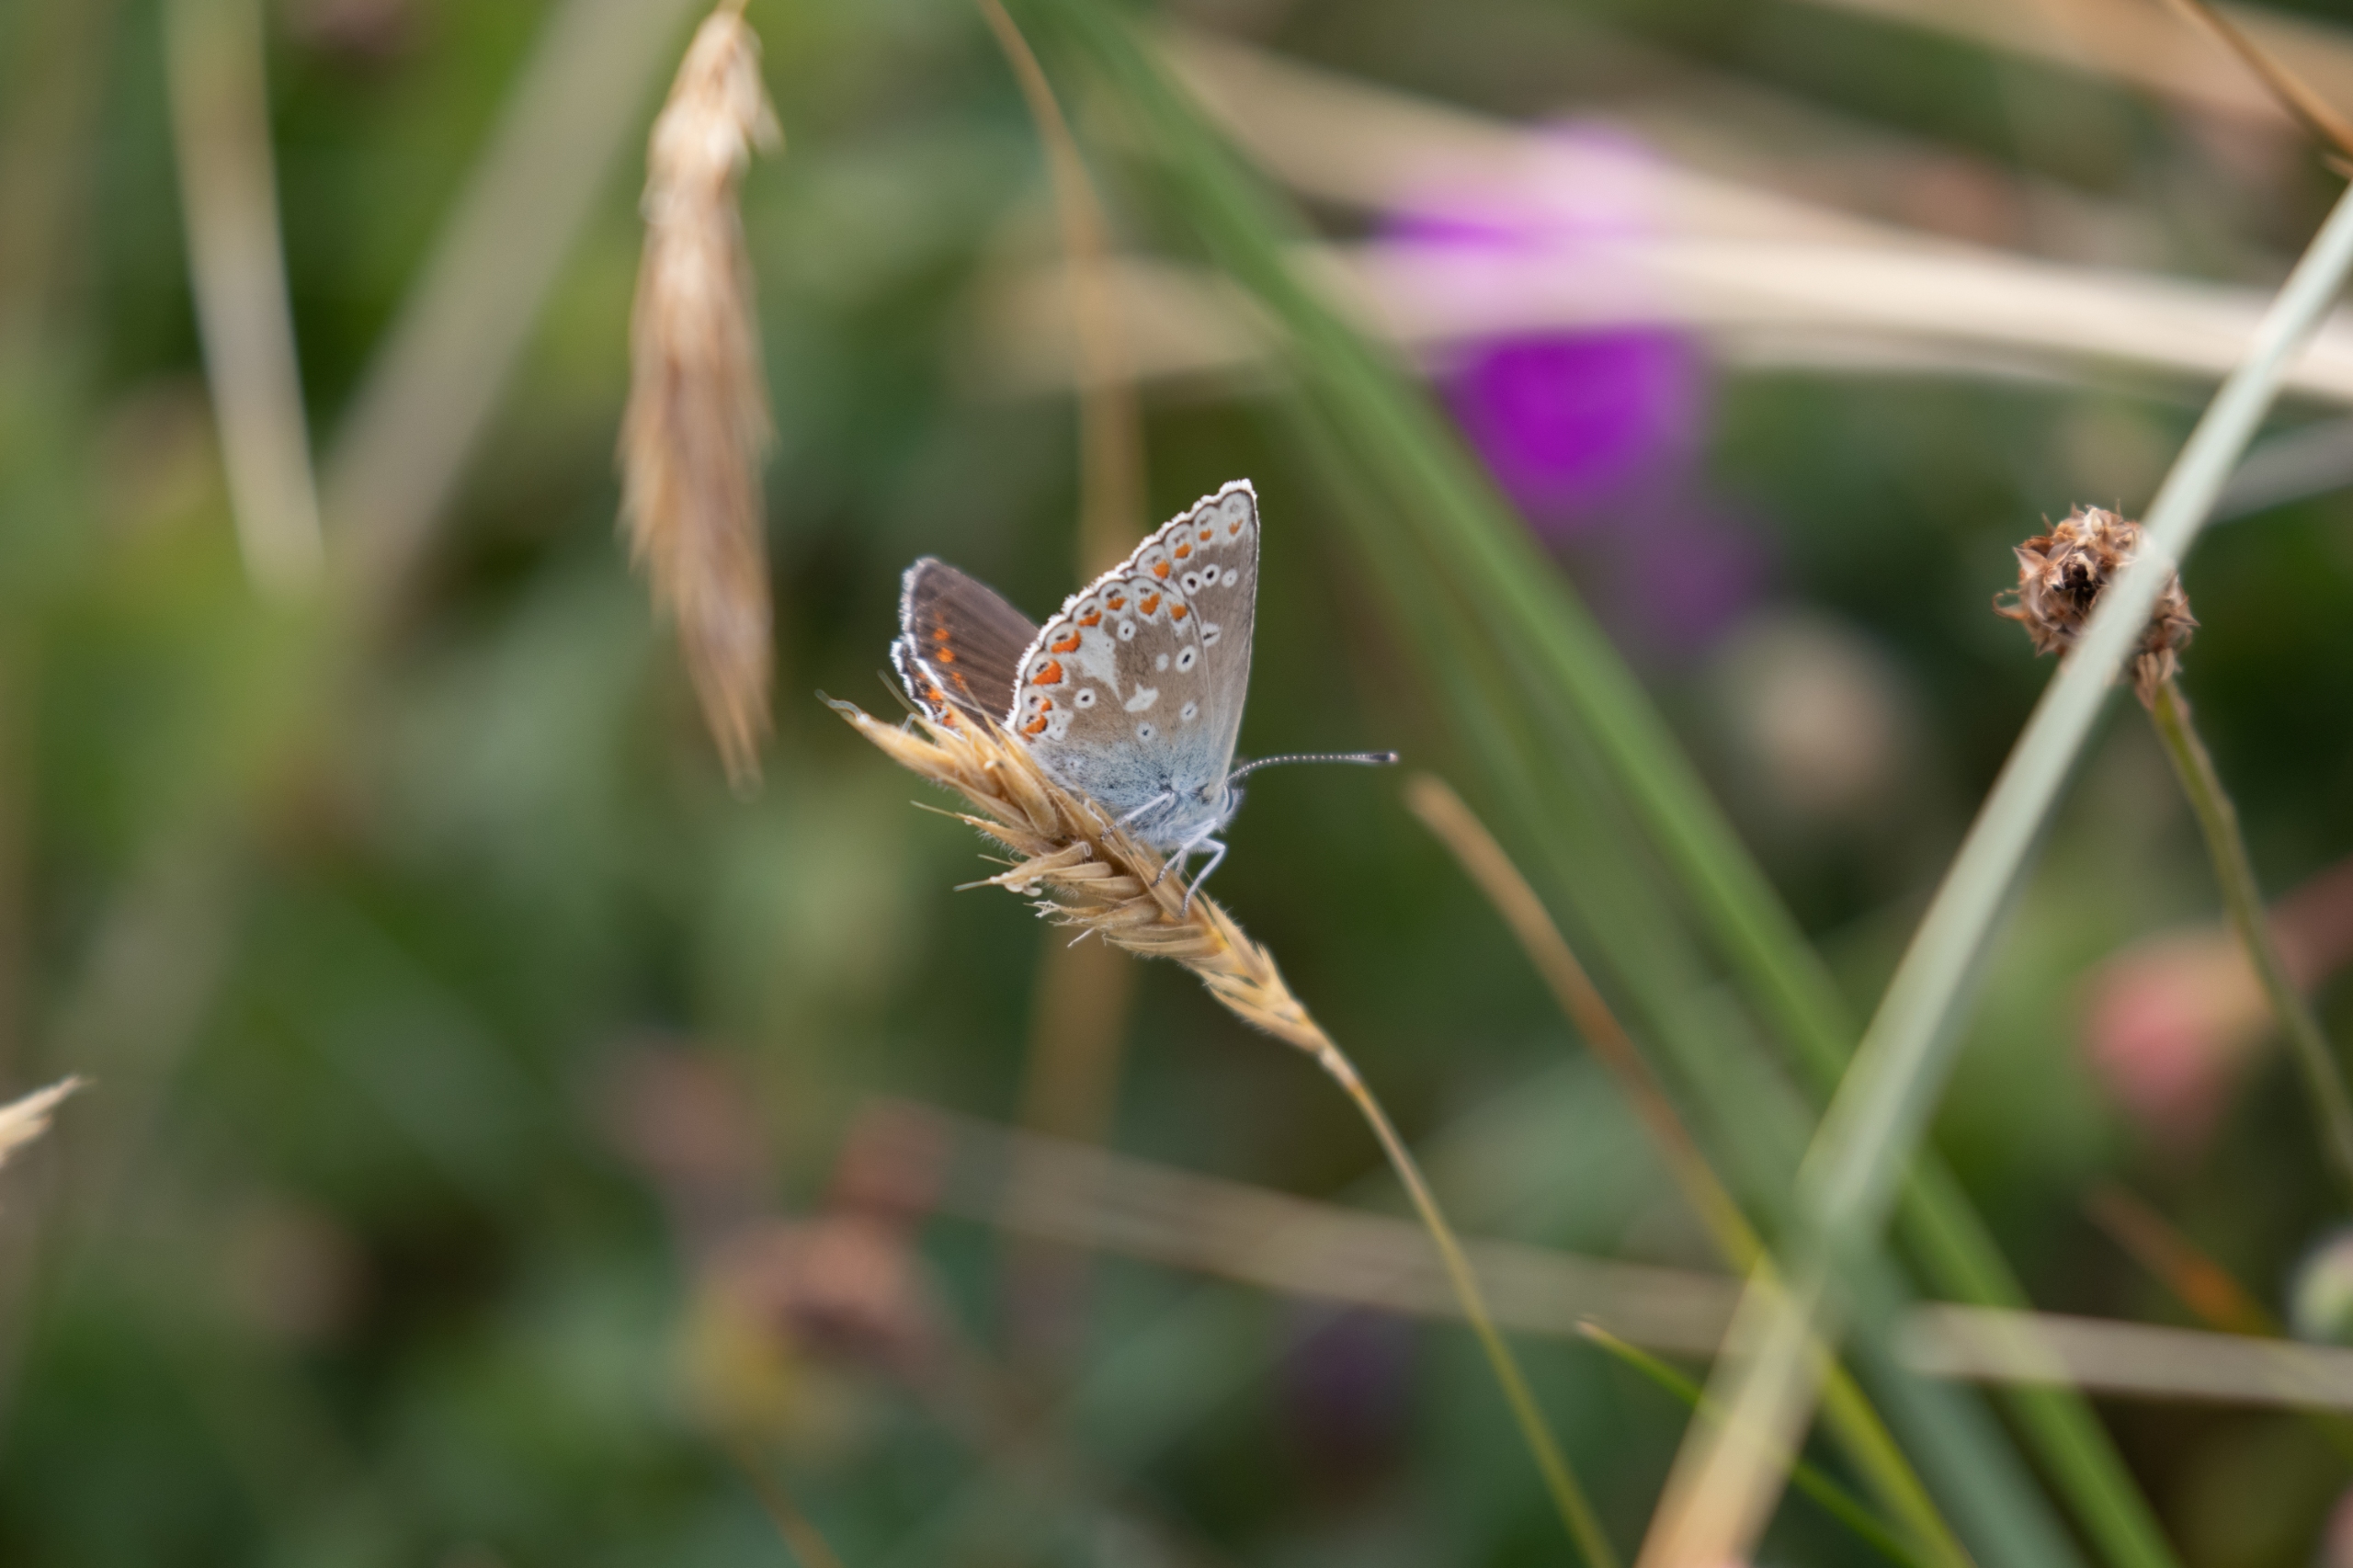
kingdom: Animalia
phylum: Arthropoda
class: Insecta
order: Lepidoptera
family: Lycaenidae
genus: Aricia
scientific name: Aricia artaxerxes
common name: Sortbrun blåfugl
